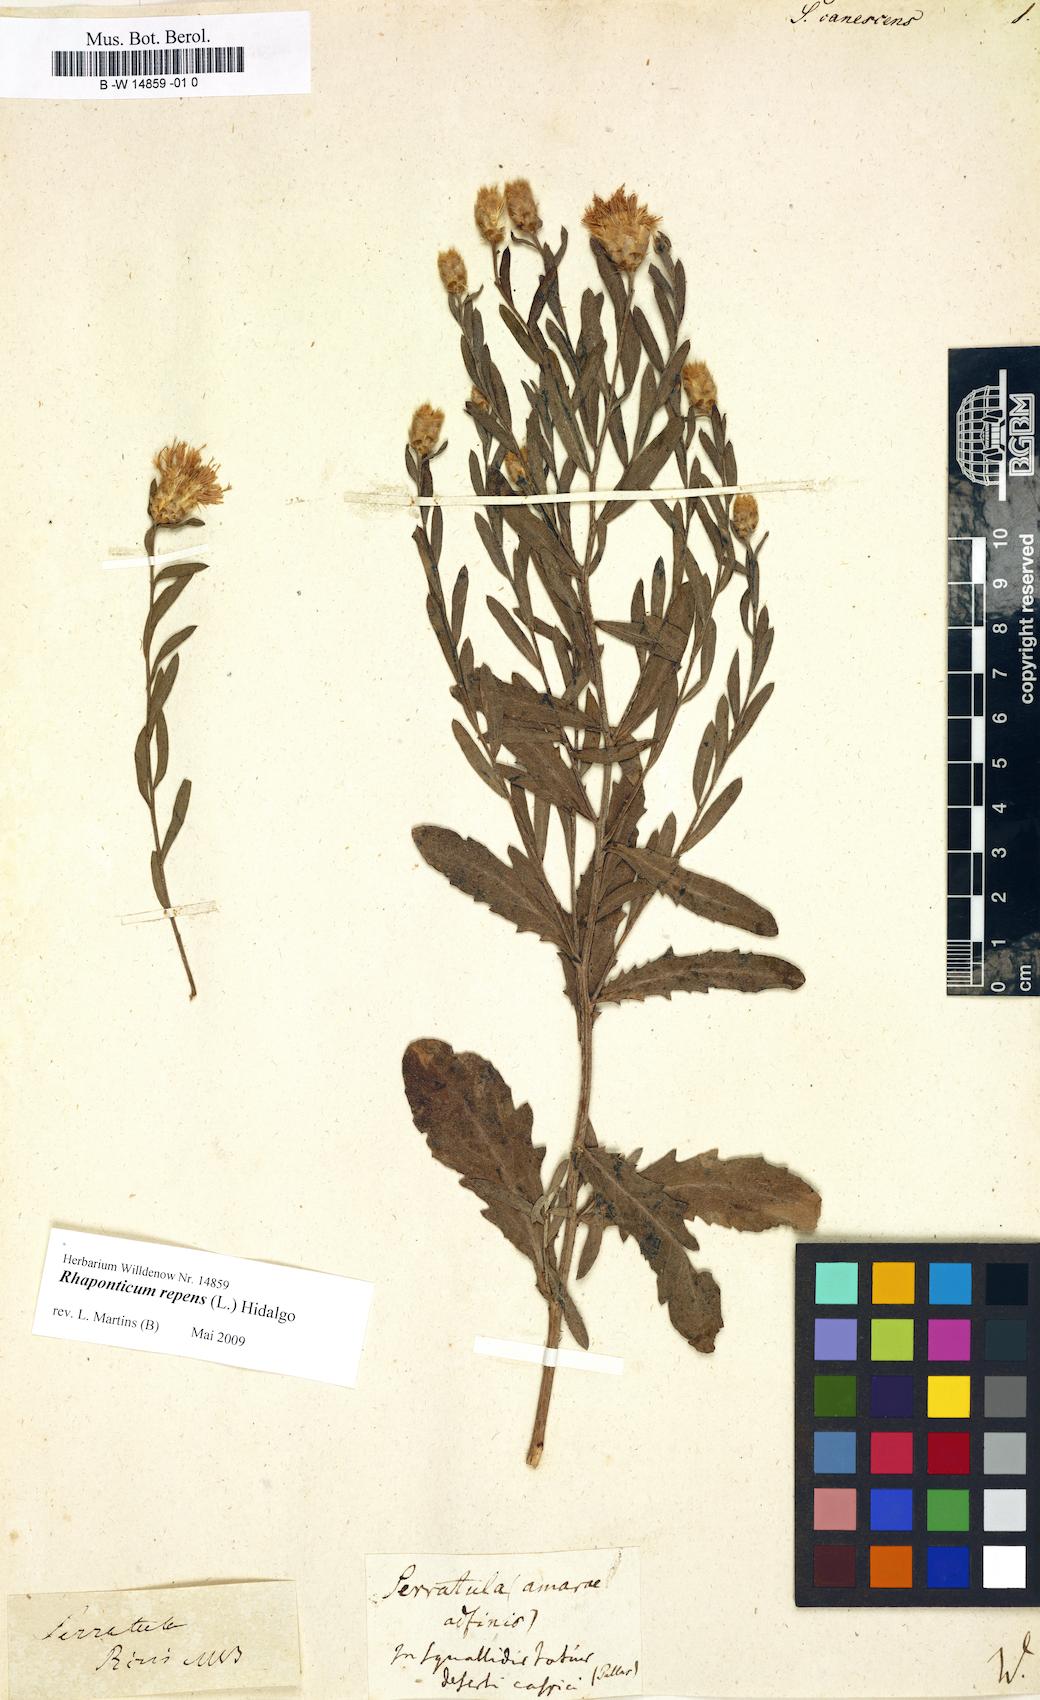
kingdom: Plantae
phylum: Tracheophyta
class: Magnoliopsida
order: Asterales
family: Asteraceae
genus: Serratula
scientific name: Serratula
